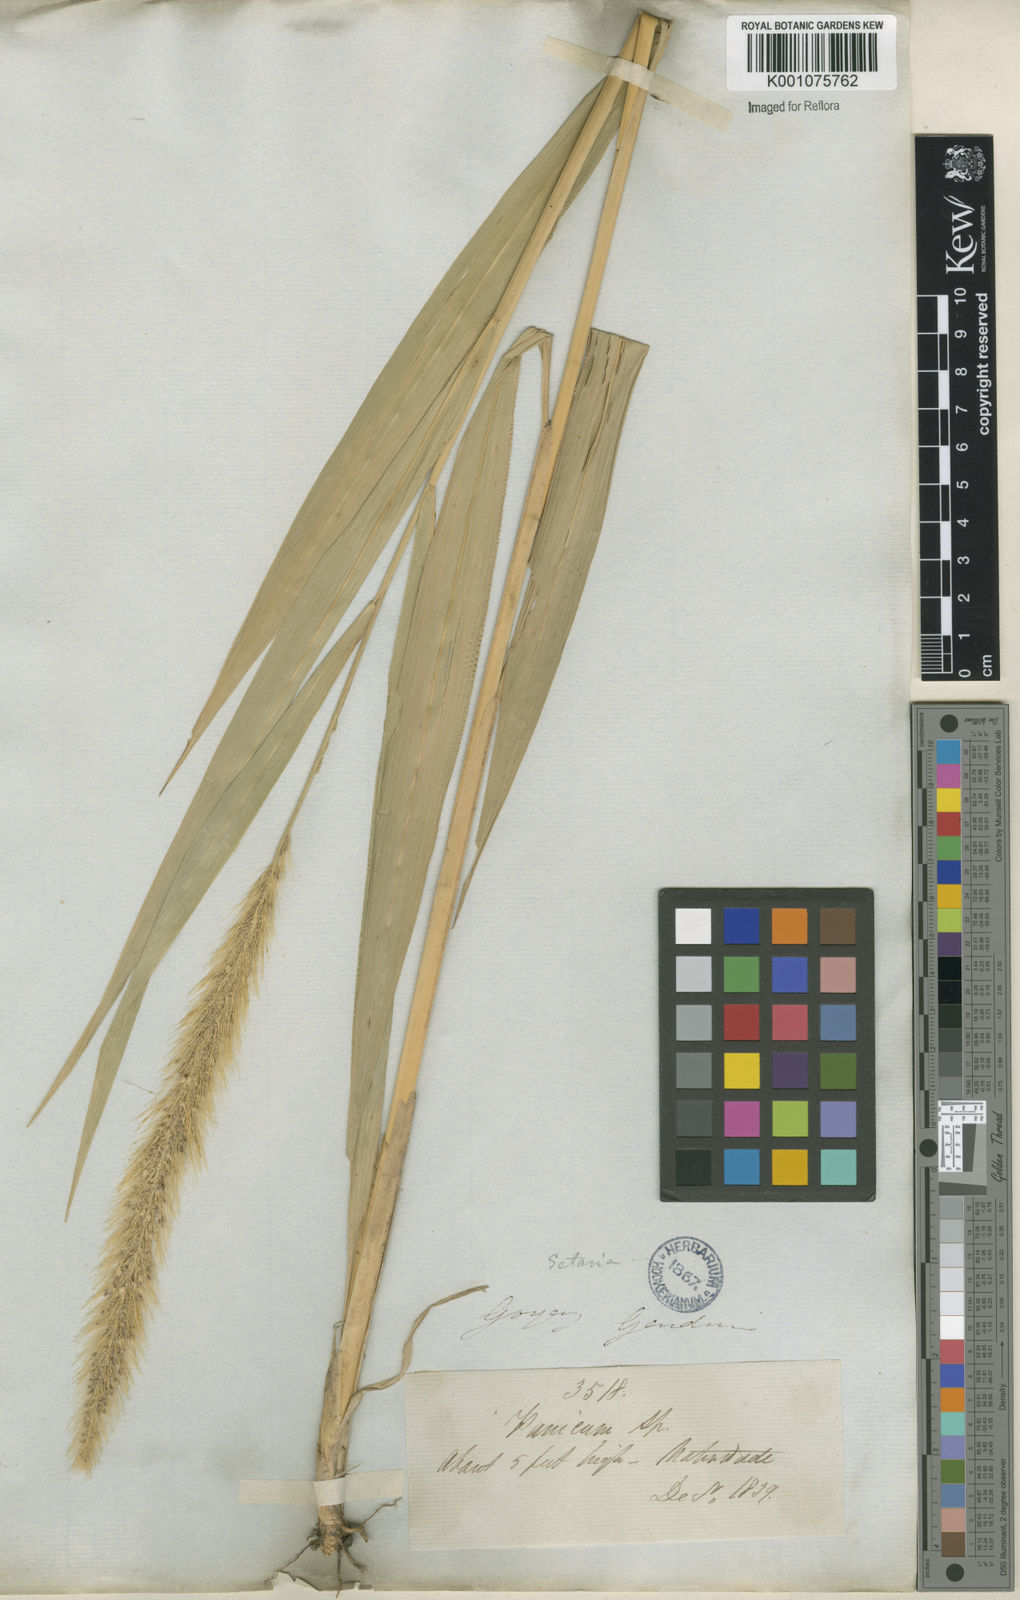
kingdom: Plantae
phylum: Tracheophyta
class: Liliopsida
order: Poales
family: Poaceae
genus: Setaria
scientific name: Setaria vulpiseta
